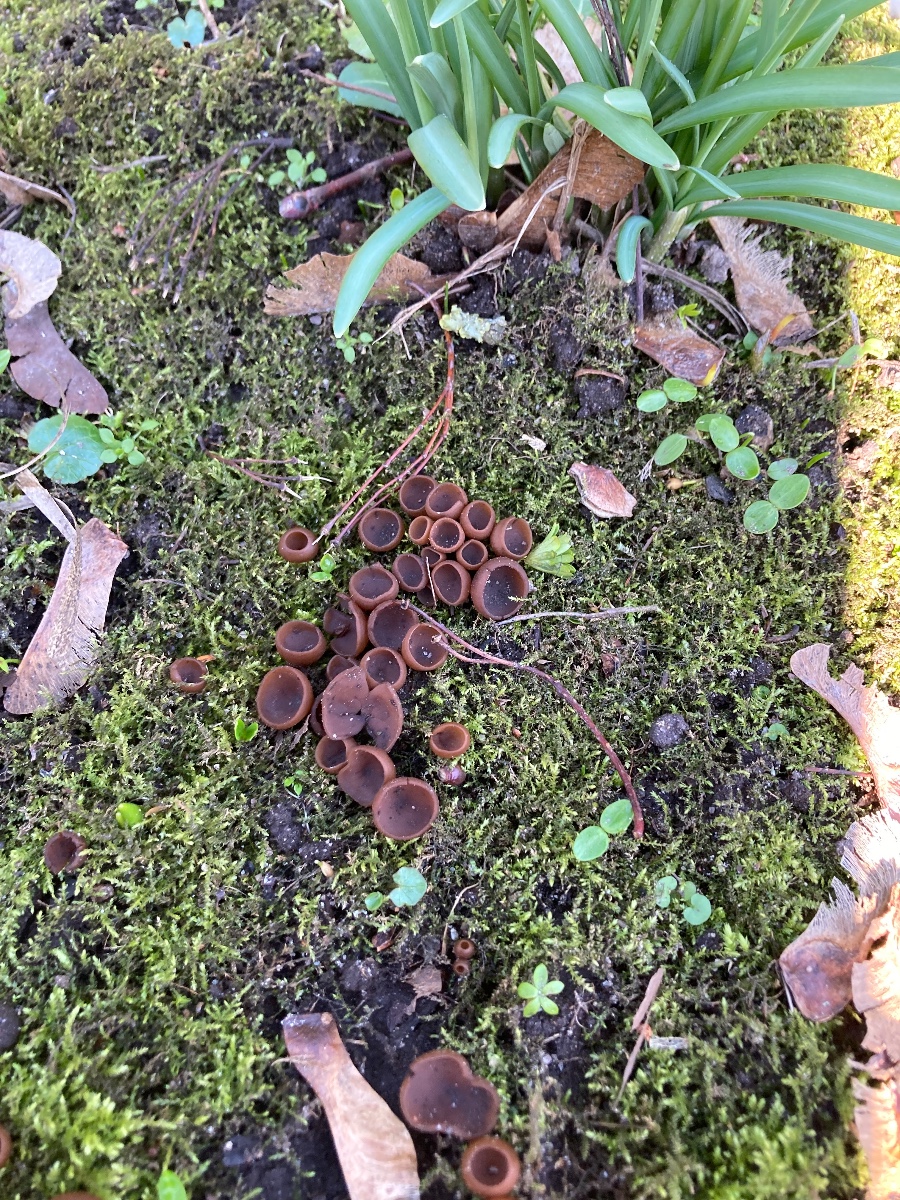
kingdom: Fungi
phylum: Ascomycota
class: Leotiomycetes
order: Helotiales
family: Sclerotiniaceae
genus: Dumontinia
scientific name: Dumontinia tuberosa
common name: anemone-knoldskive
